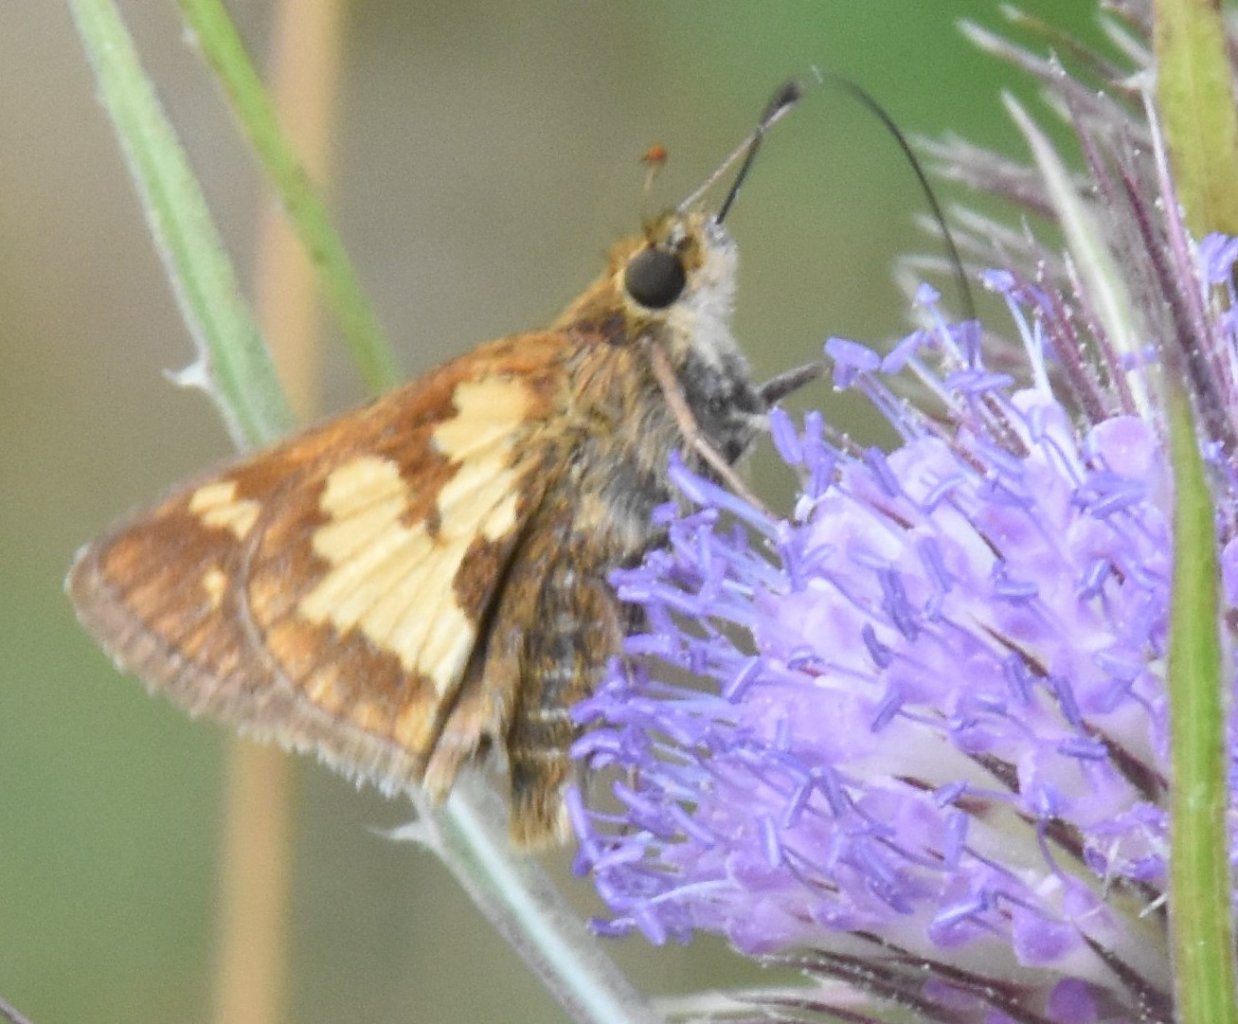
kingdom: Animalia
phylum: Arthropoda
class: Insecta
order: Lepidoptera
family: Hesperiidae
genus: Polites
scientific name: Polites coras
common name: Peck's Skipper
